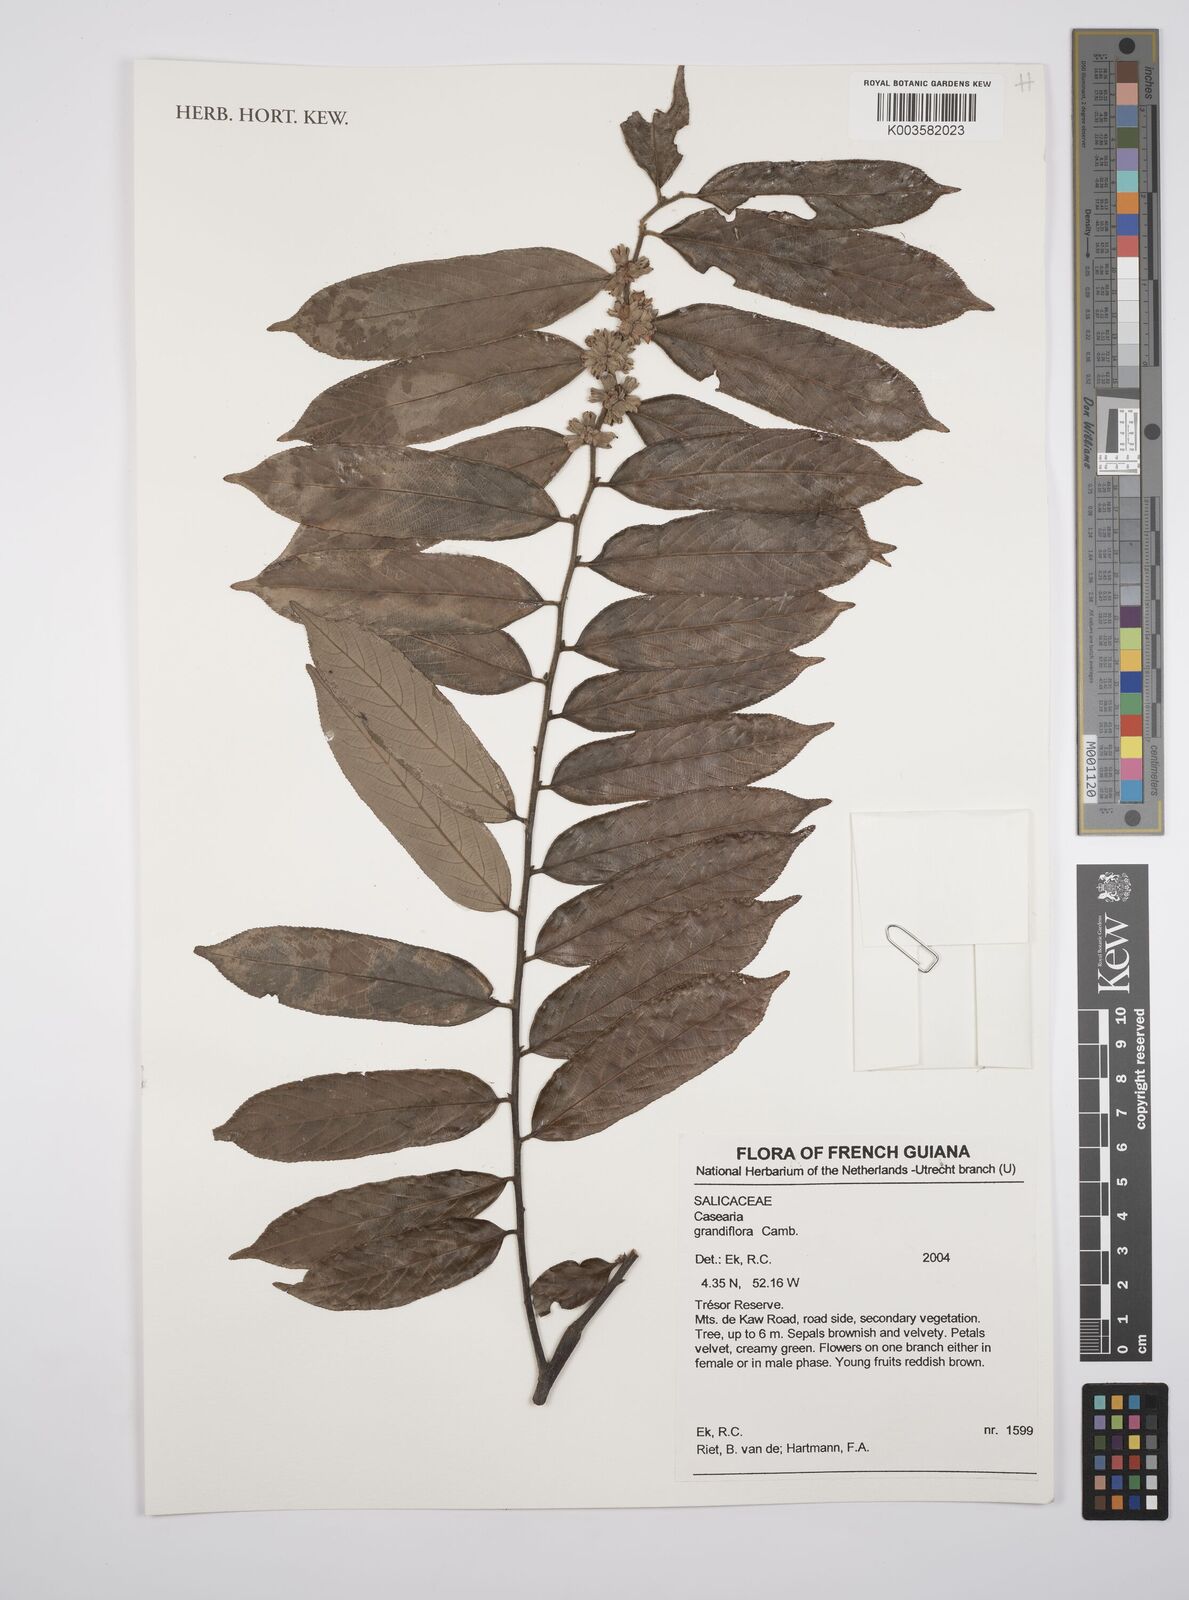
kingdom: Plantae
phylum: Tracheophyta
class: Magnoliopsida
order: Malpighiales
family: Salicaceae
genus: Casearia
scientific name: Casearia grandiflora
